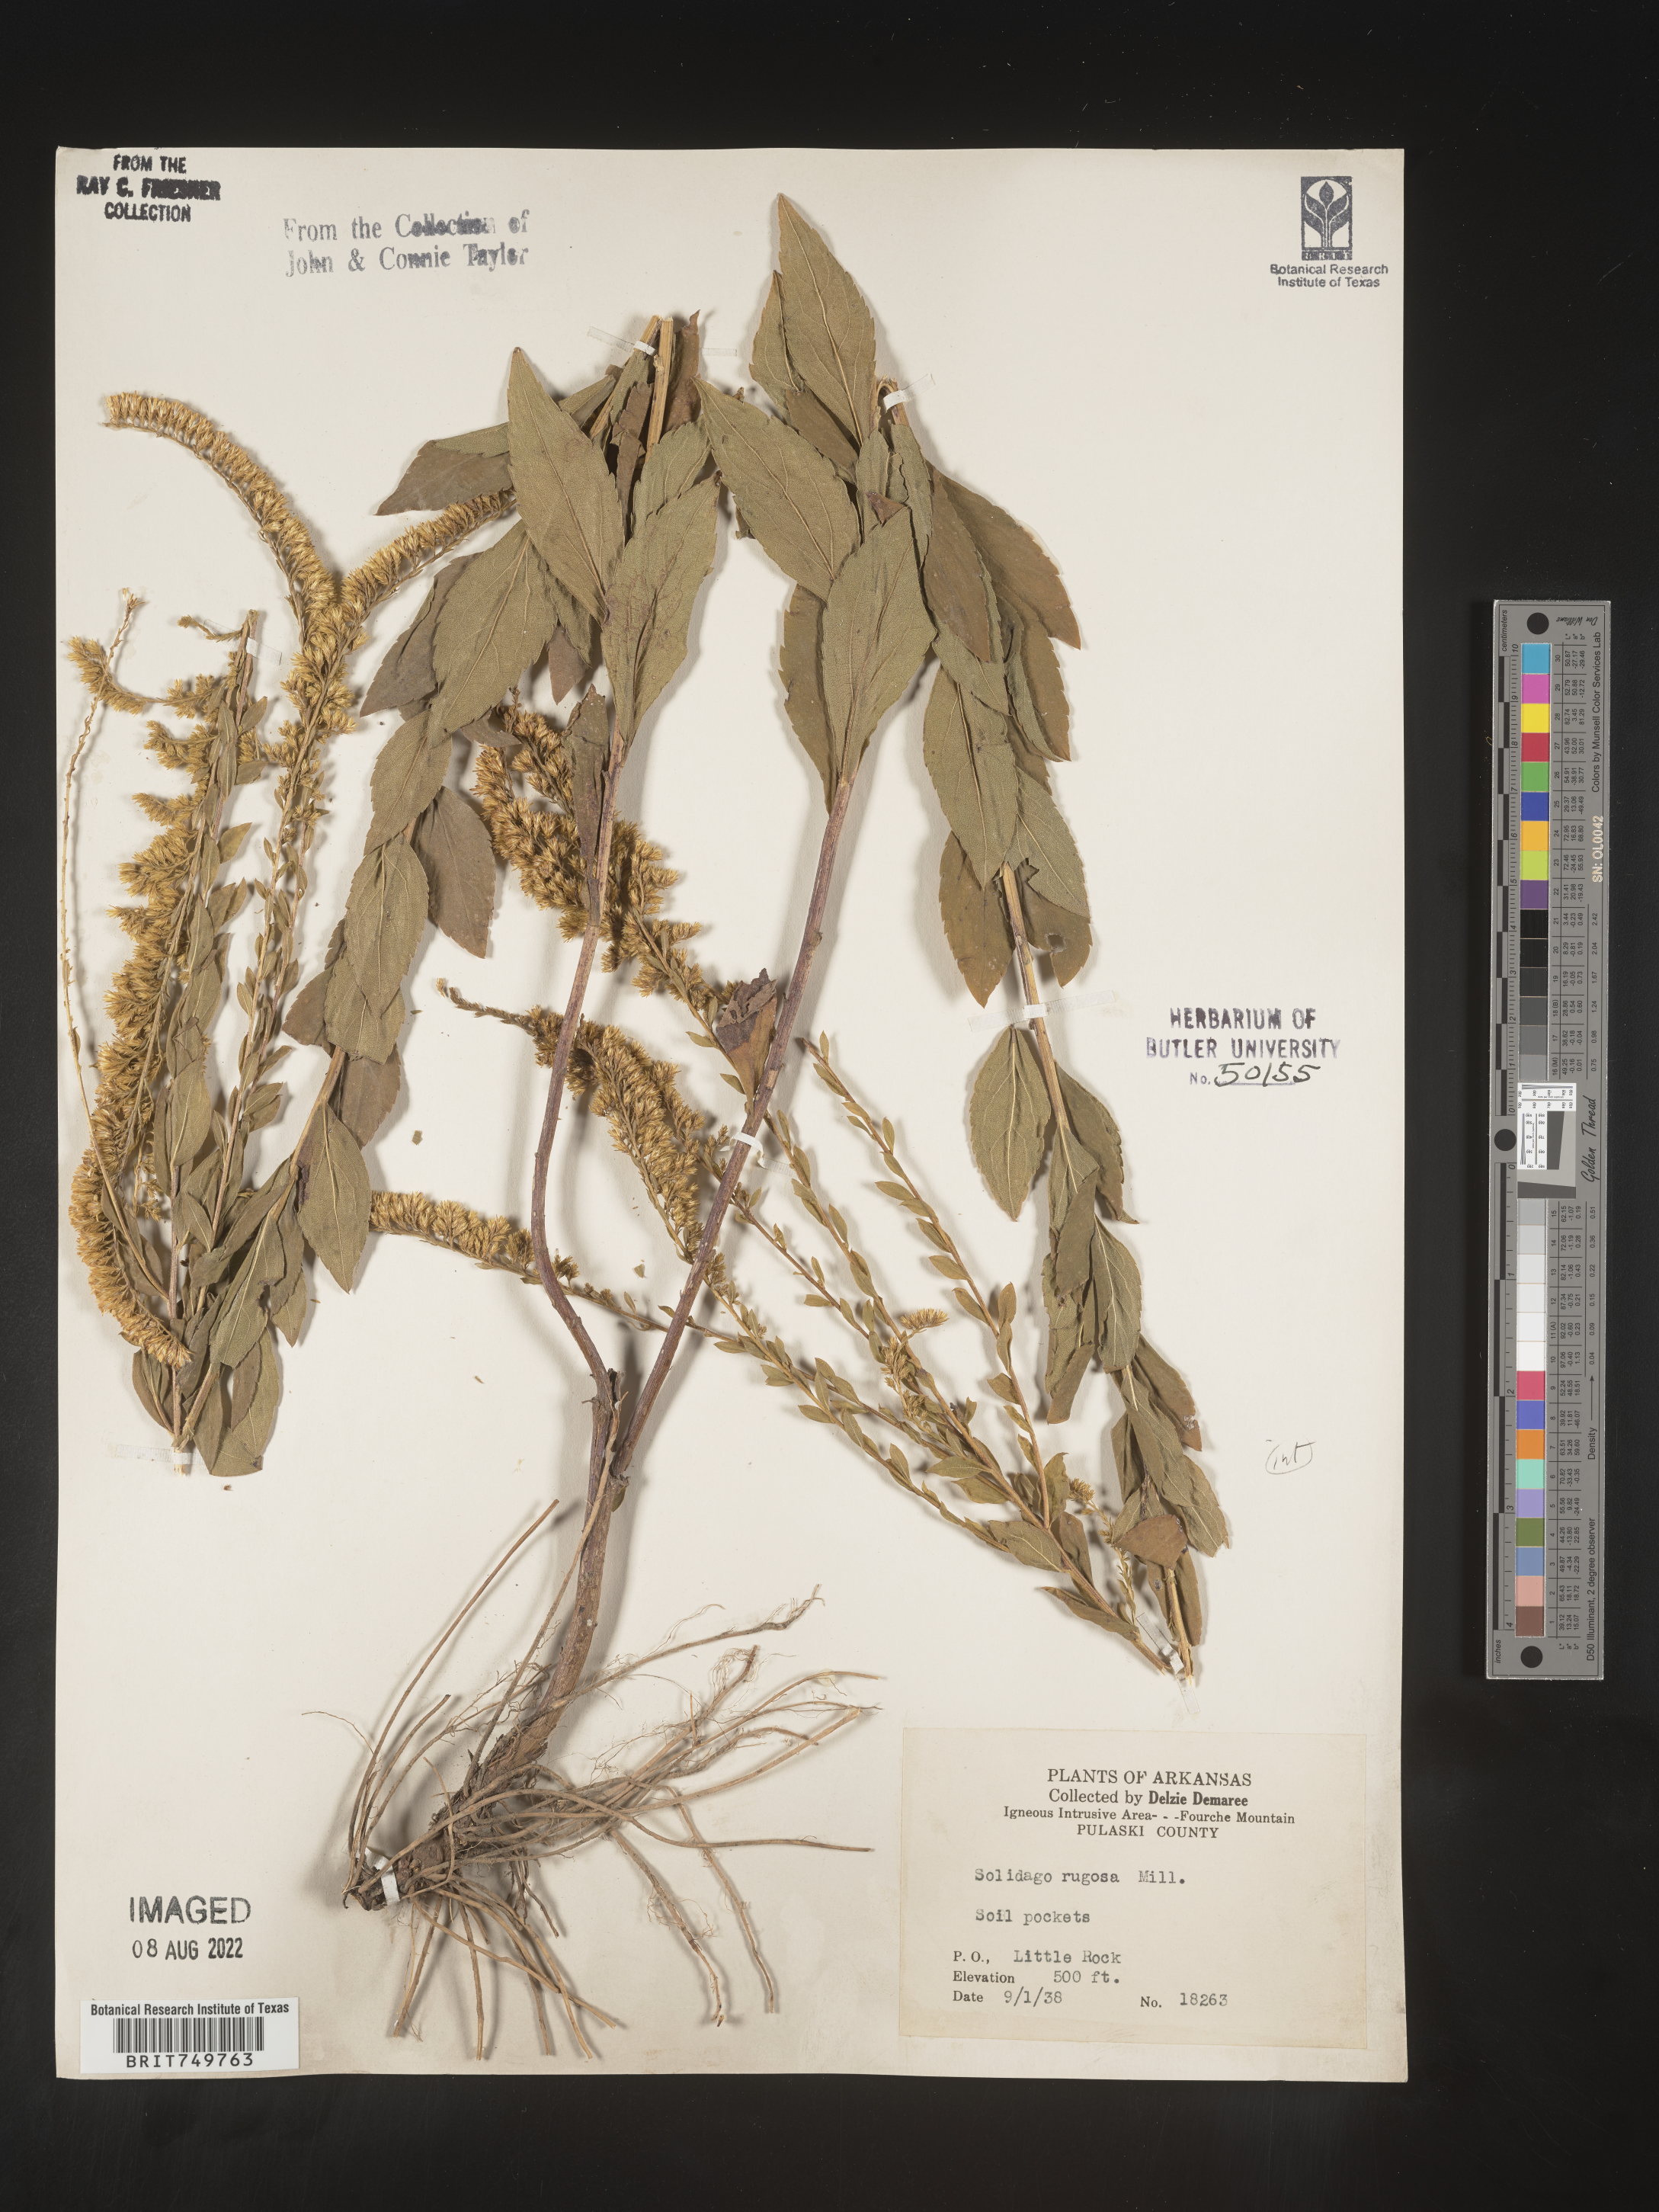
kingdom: Plantae
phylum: Tracheophyta
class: Magnoliopsida
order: Asterales
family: Asteraceae
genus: Solidago
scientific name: Solidago ulmifolia
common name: Elm-leaf goldenrod
